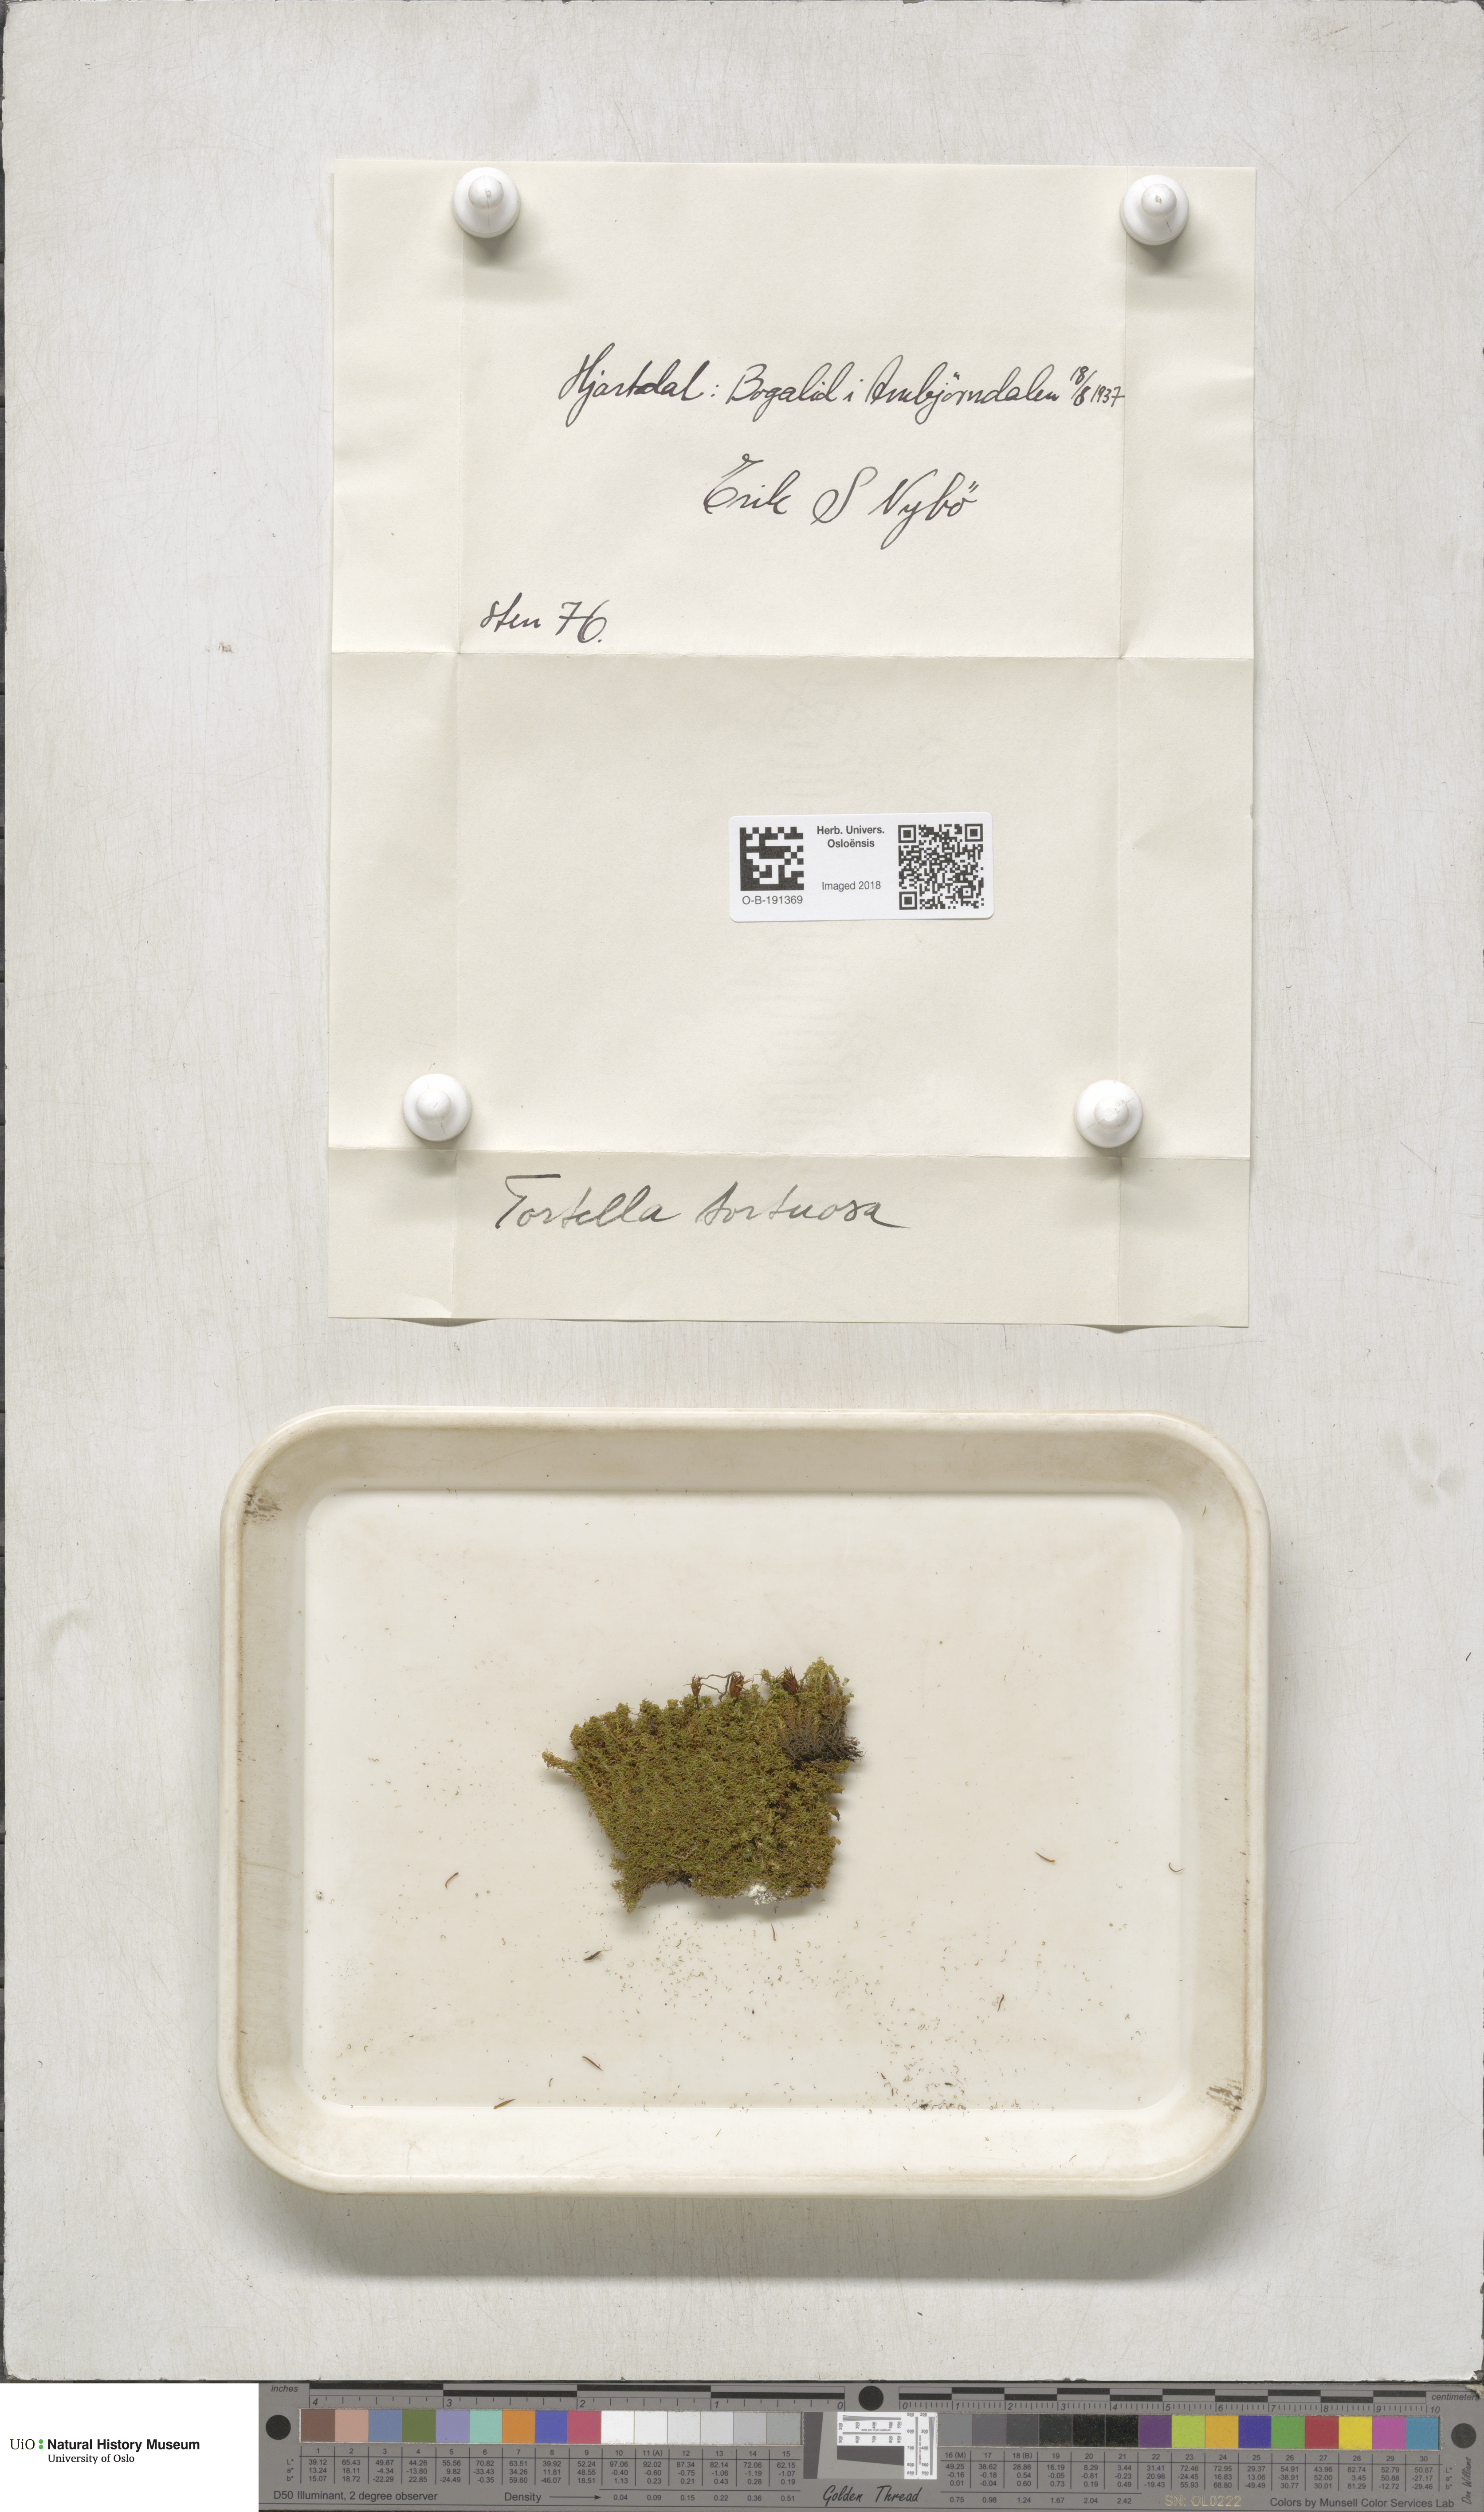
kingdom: Plantae
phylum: Bryophyta
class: Bryopsida
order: Pottiales
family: Pottiaceae
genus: Tortella
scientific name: Tortella tortuosa
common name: Frizzled crisp moss
